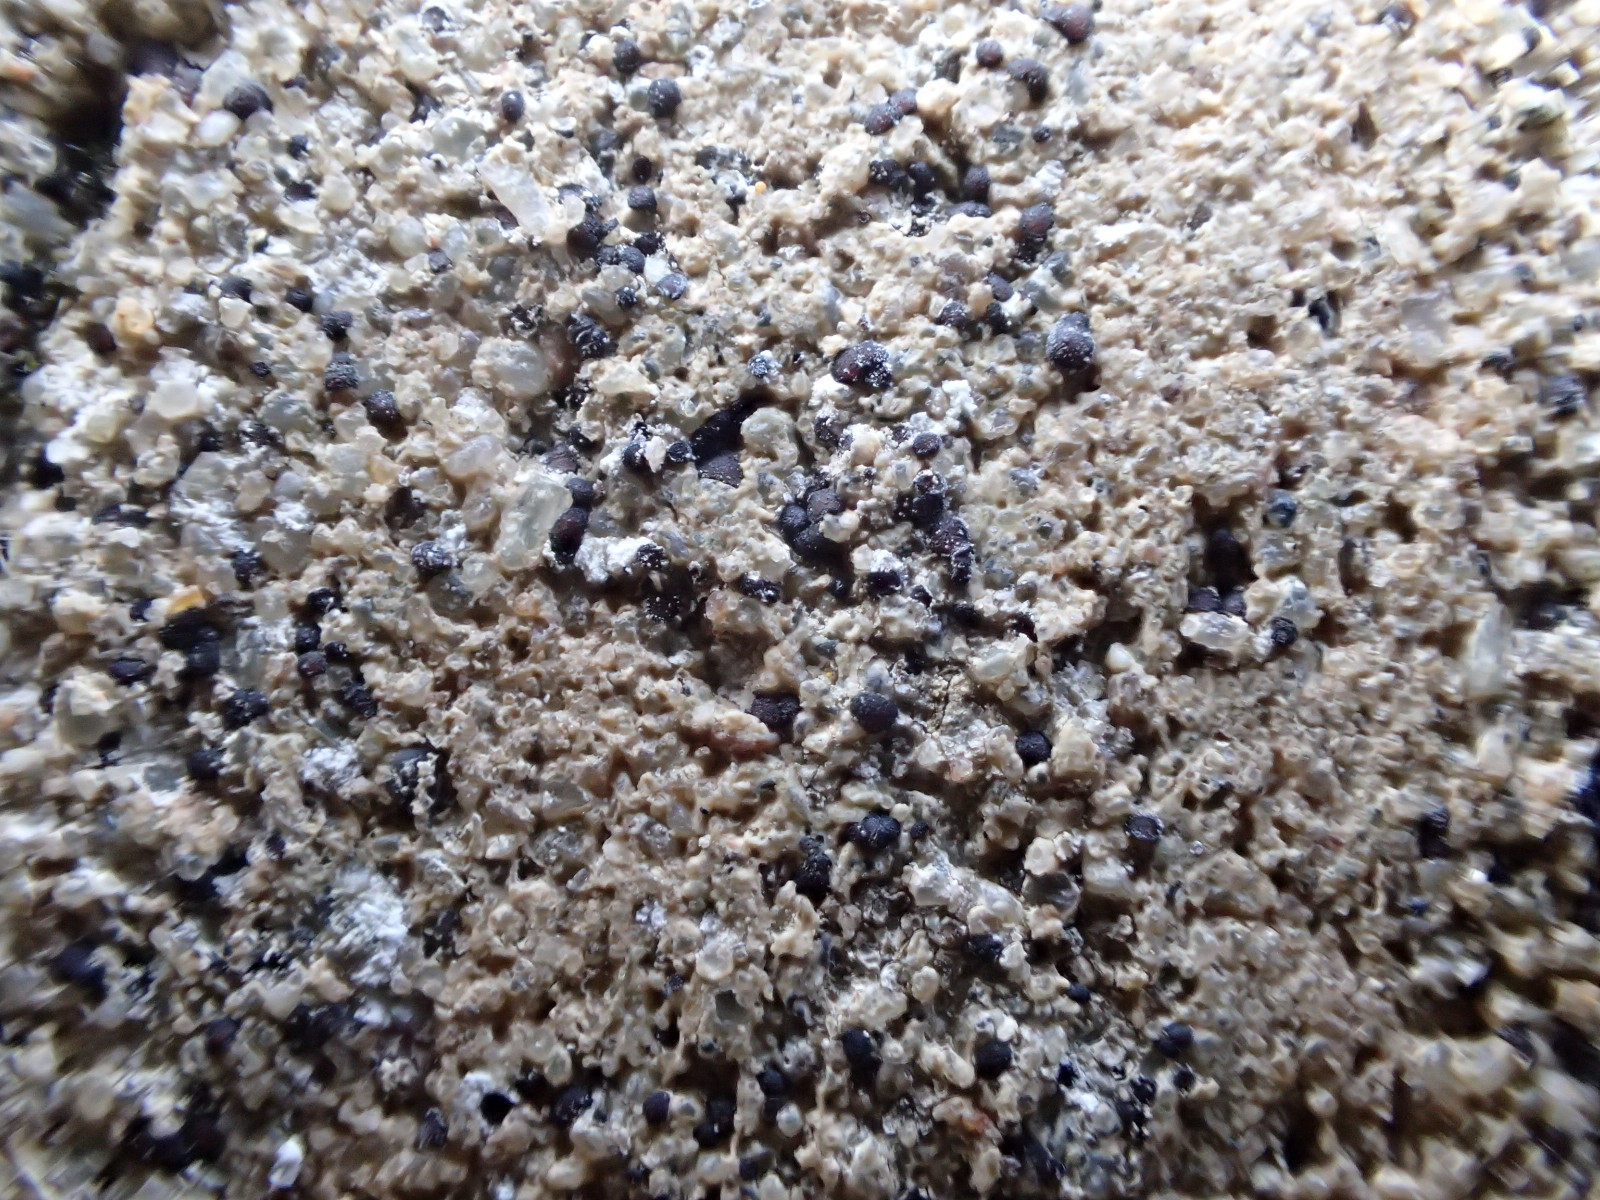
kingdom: Fungi
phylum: Ascomycota
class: Lecanoromycetes
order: Acarosporales
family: Acarosporaceae
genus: Sarcogyne
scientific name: Sarcogyne regularis
